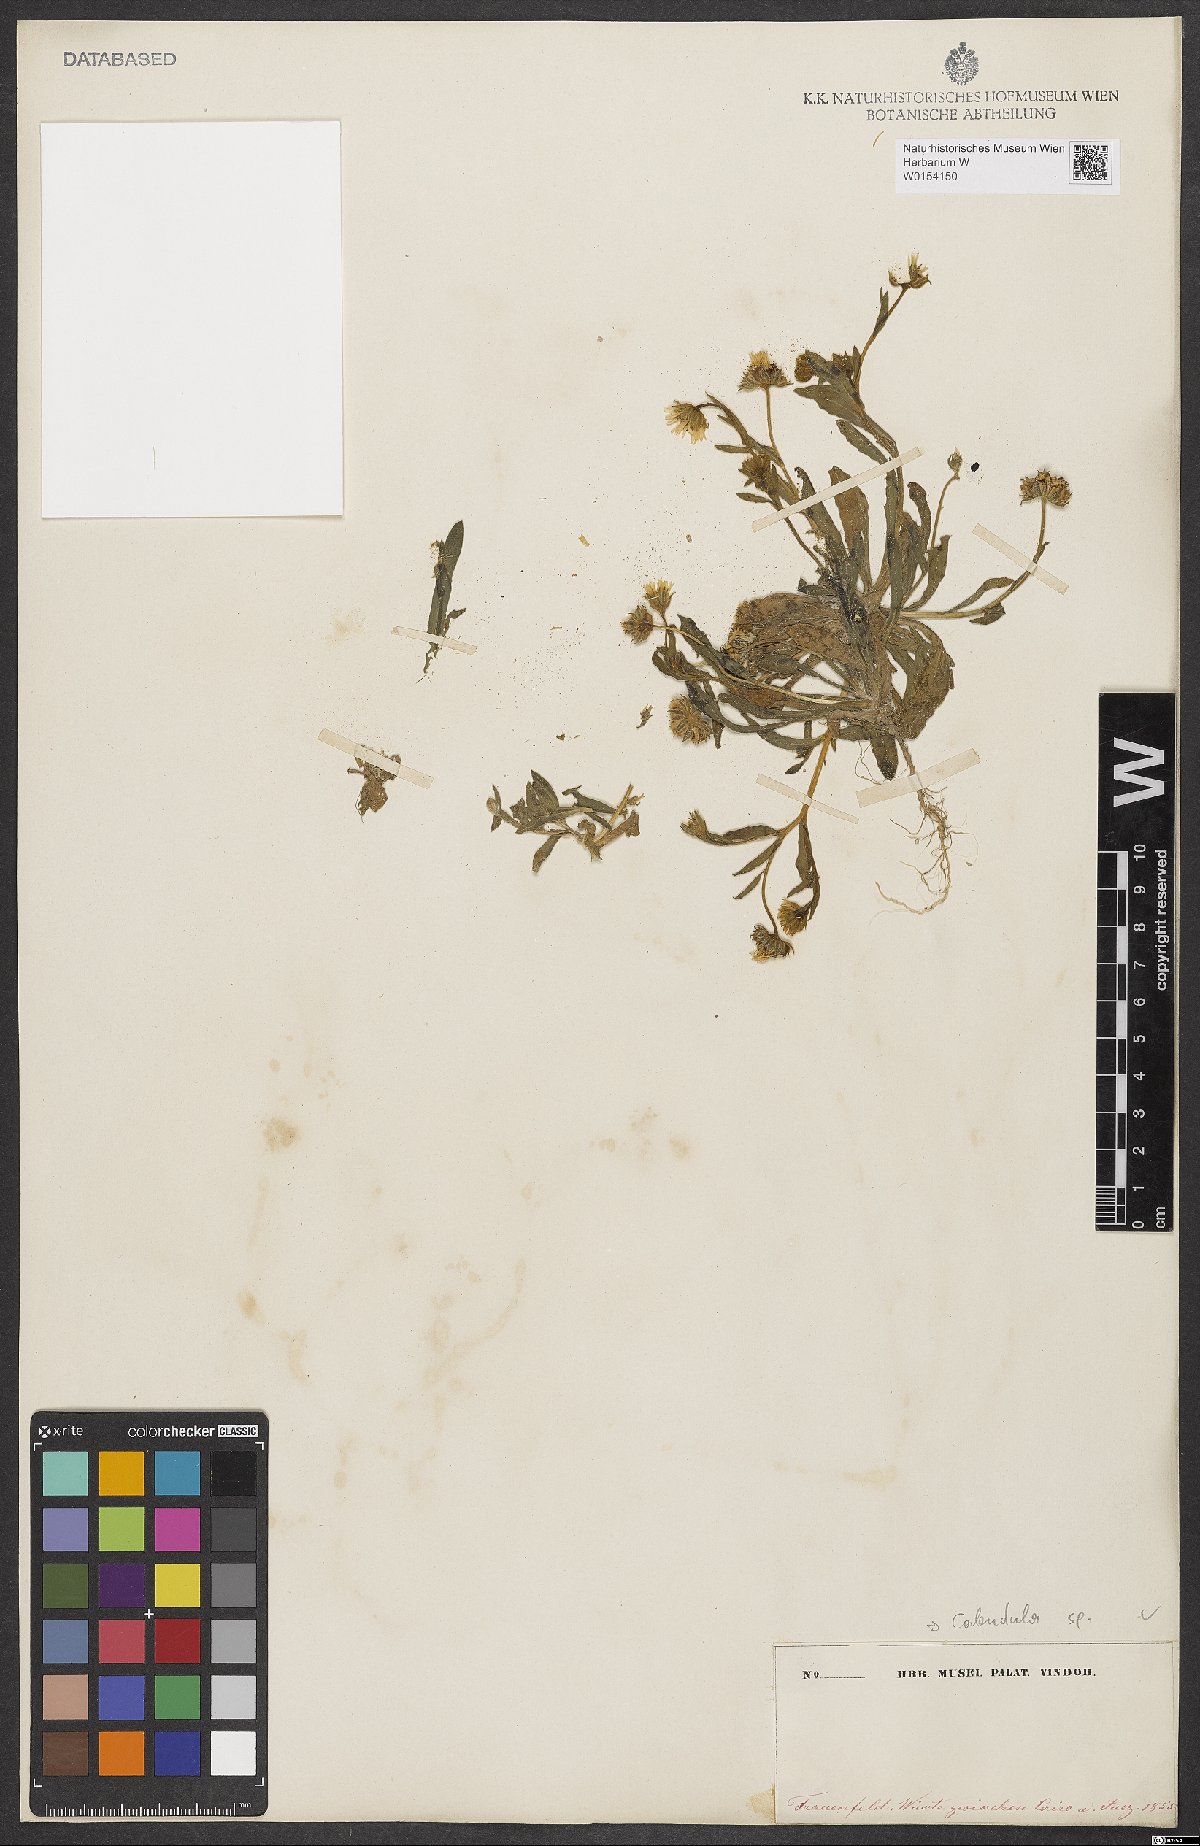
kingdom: Plantae
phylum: Tracheophyta
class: Magnoliopsida
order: Asterales
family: Asteraceae
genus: Calendula
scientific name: Calendula
